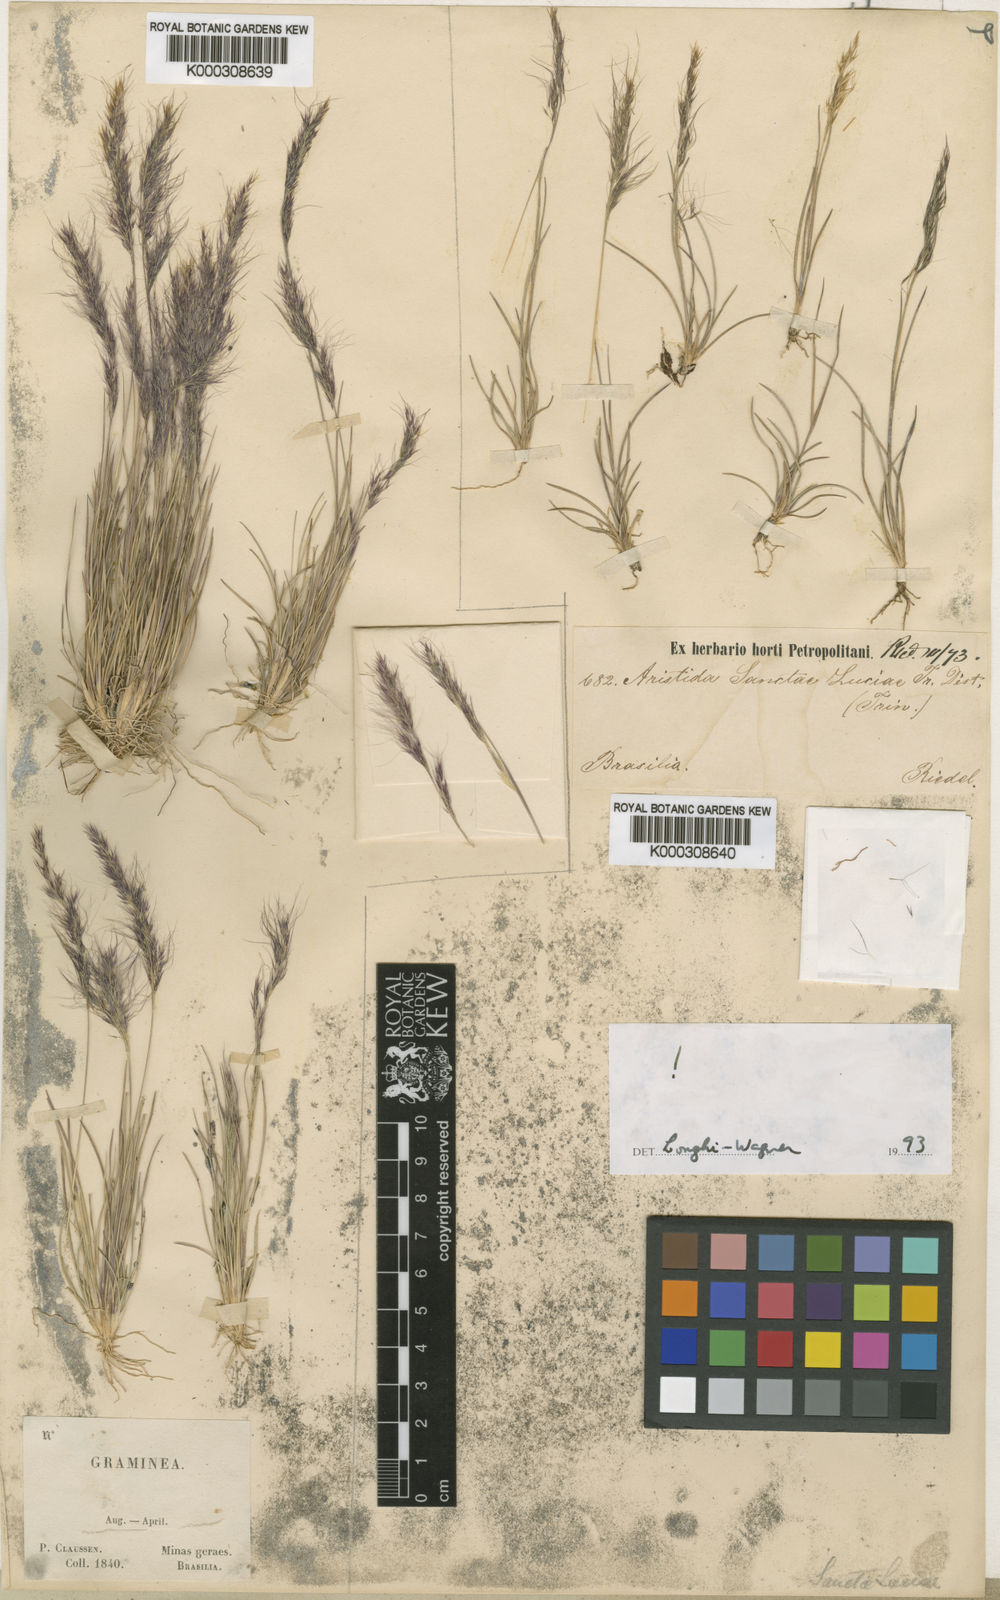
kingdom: Plantae
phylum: Tracheophyta
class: Liliopsida
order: Poales
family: Poaceae
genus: Aristida
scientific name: Aristida sanctae-luciae
